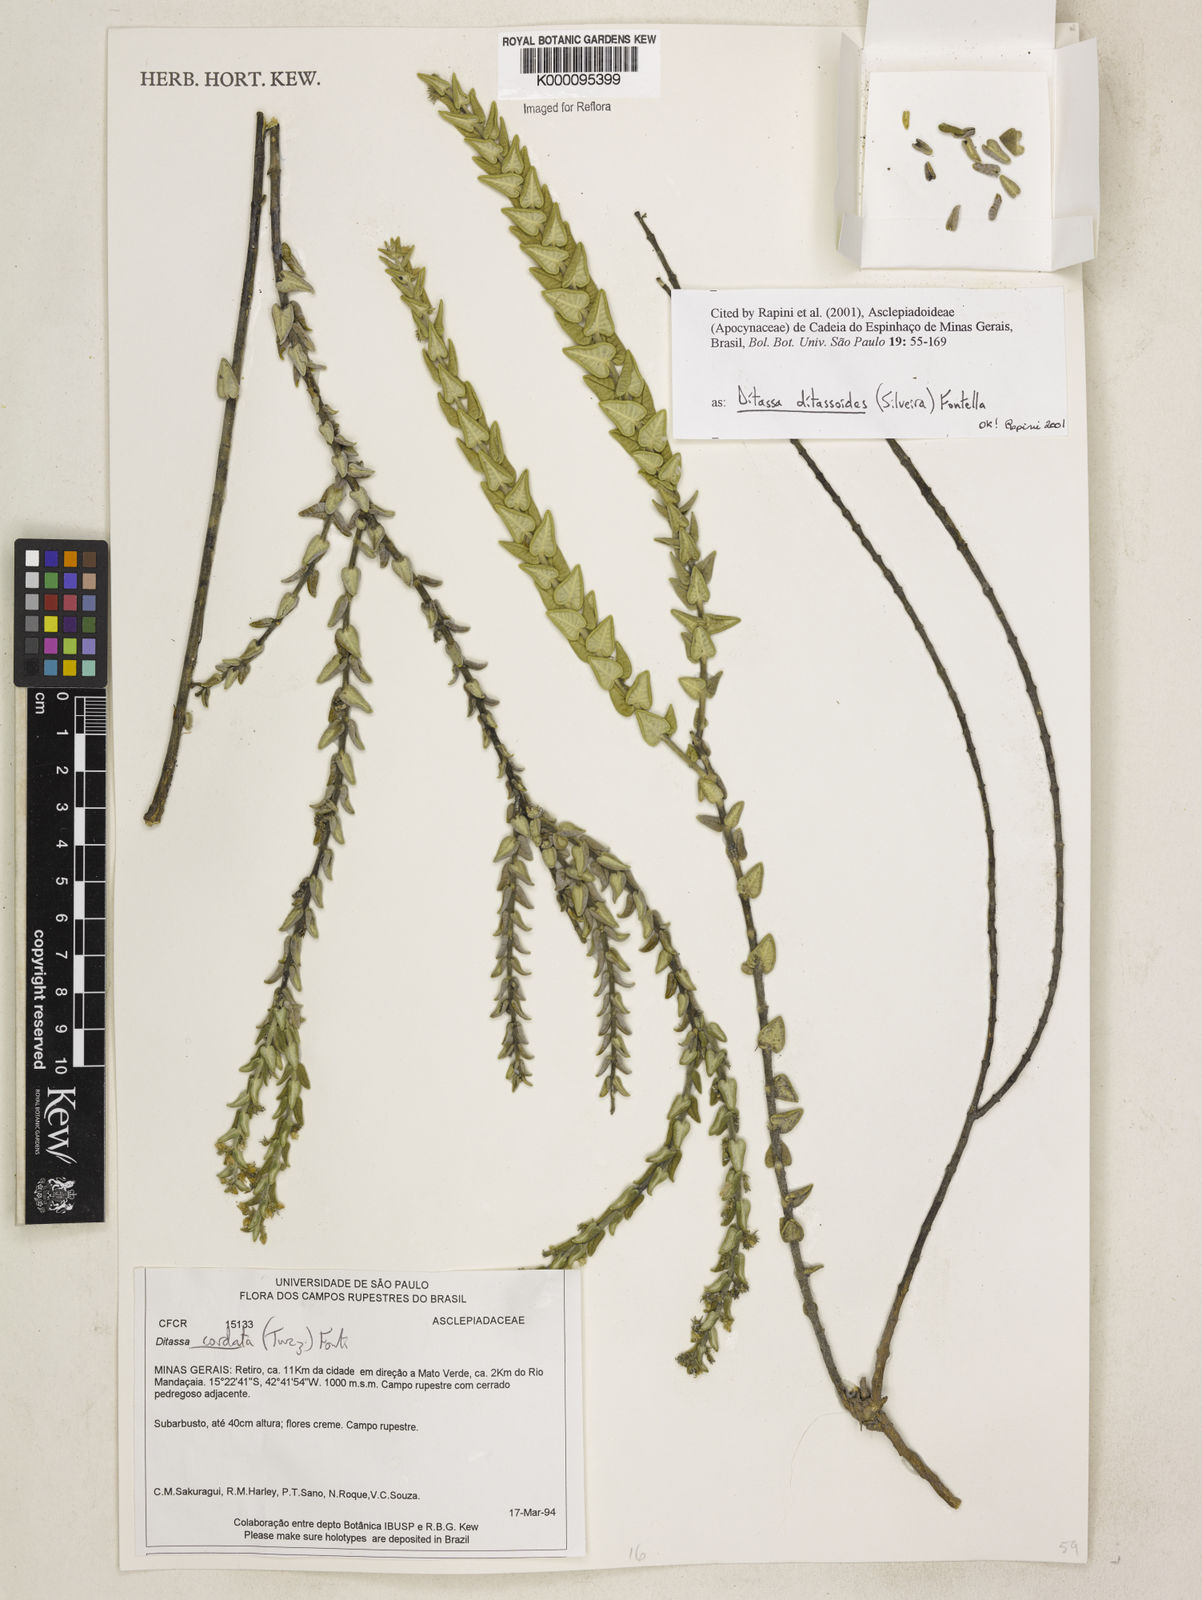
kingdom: Plantae
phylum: Tracheophyta
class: Magnoliopsida
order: Gentianales
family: Apocynaceae
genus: Minaria
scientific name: Minaria ditassoides
